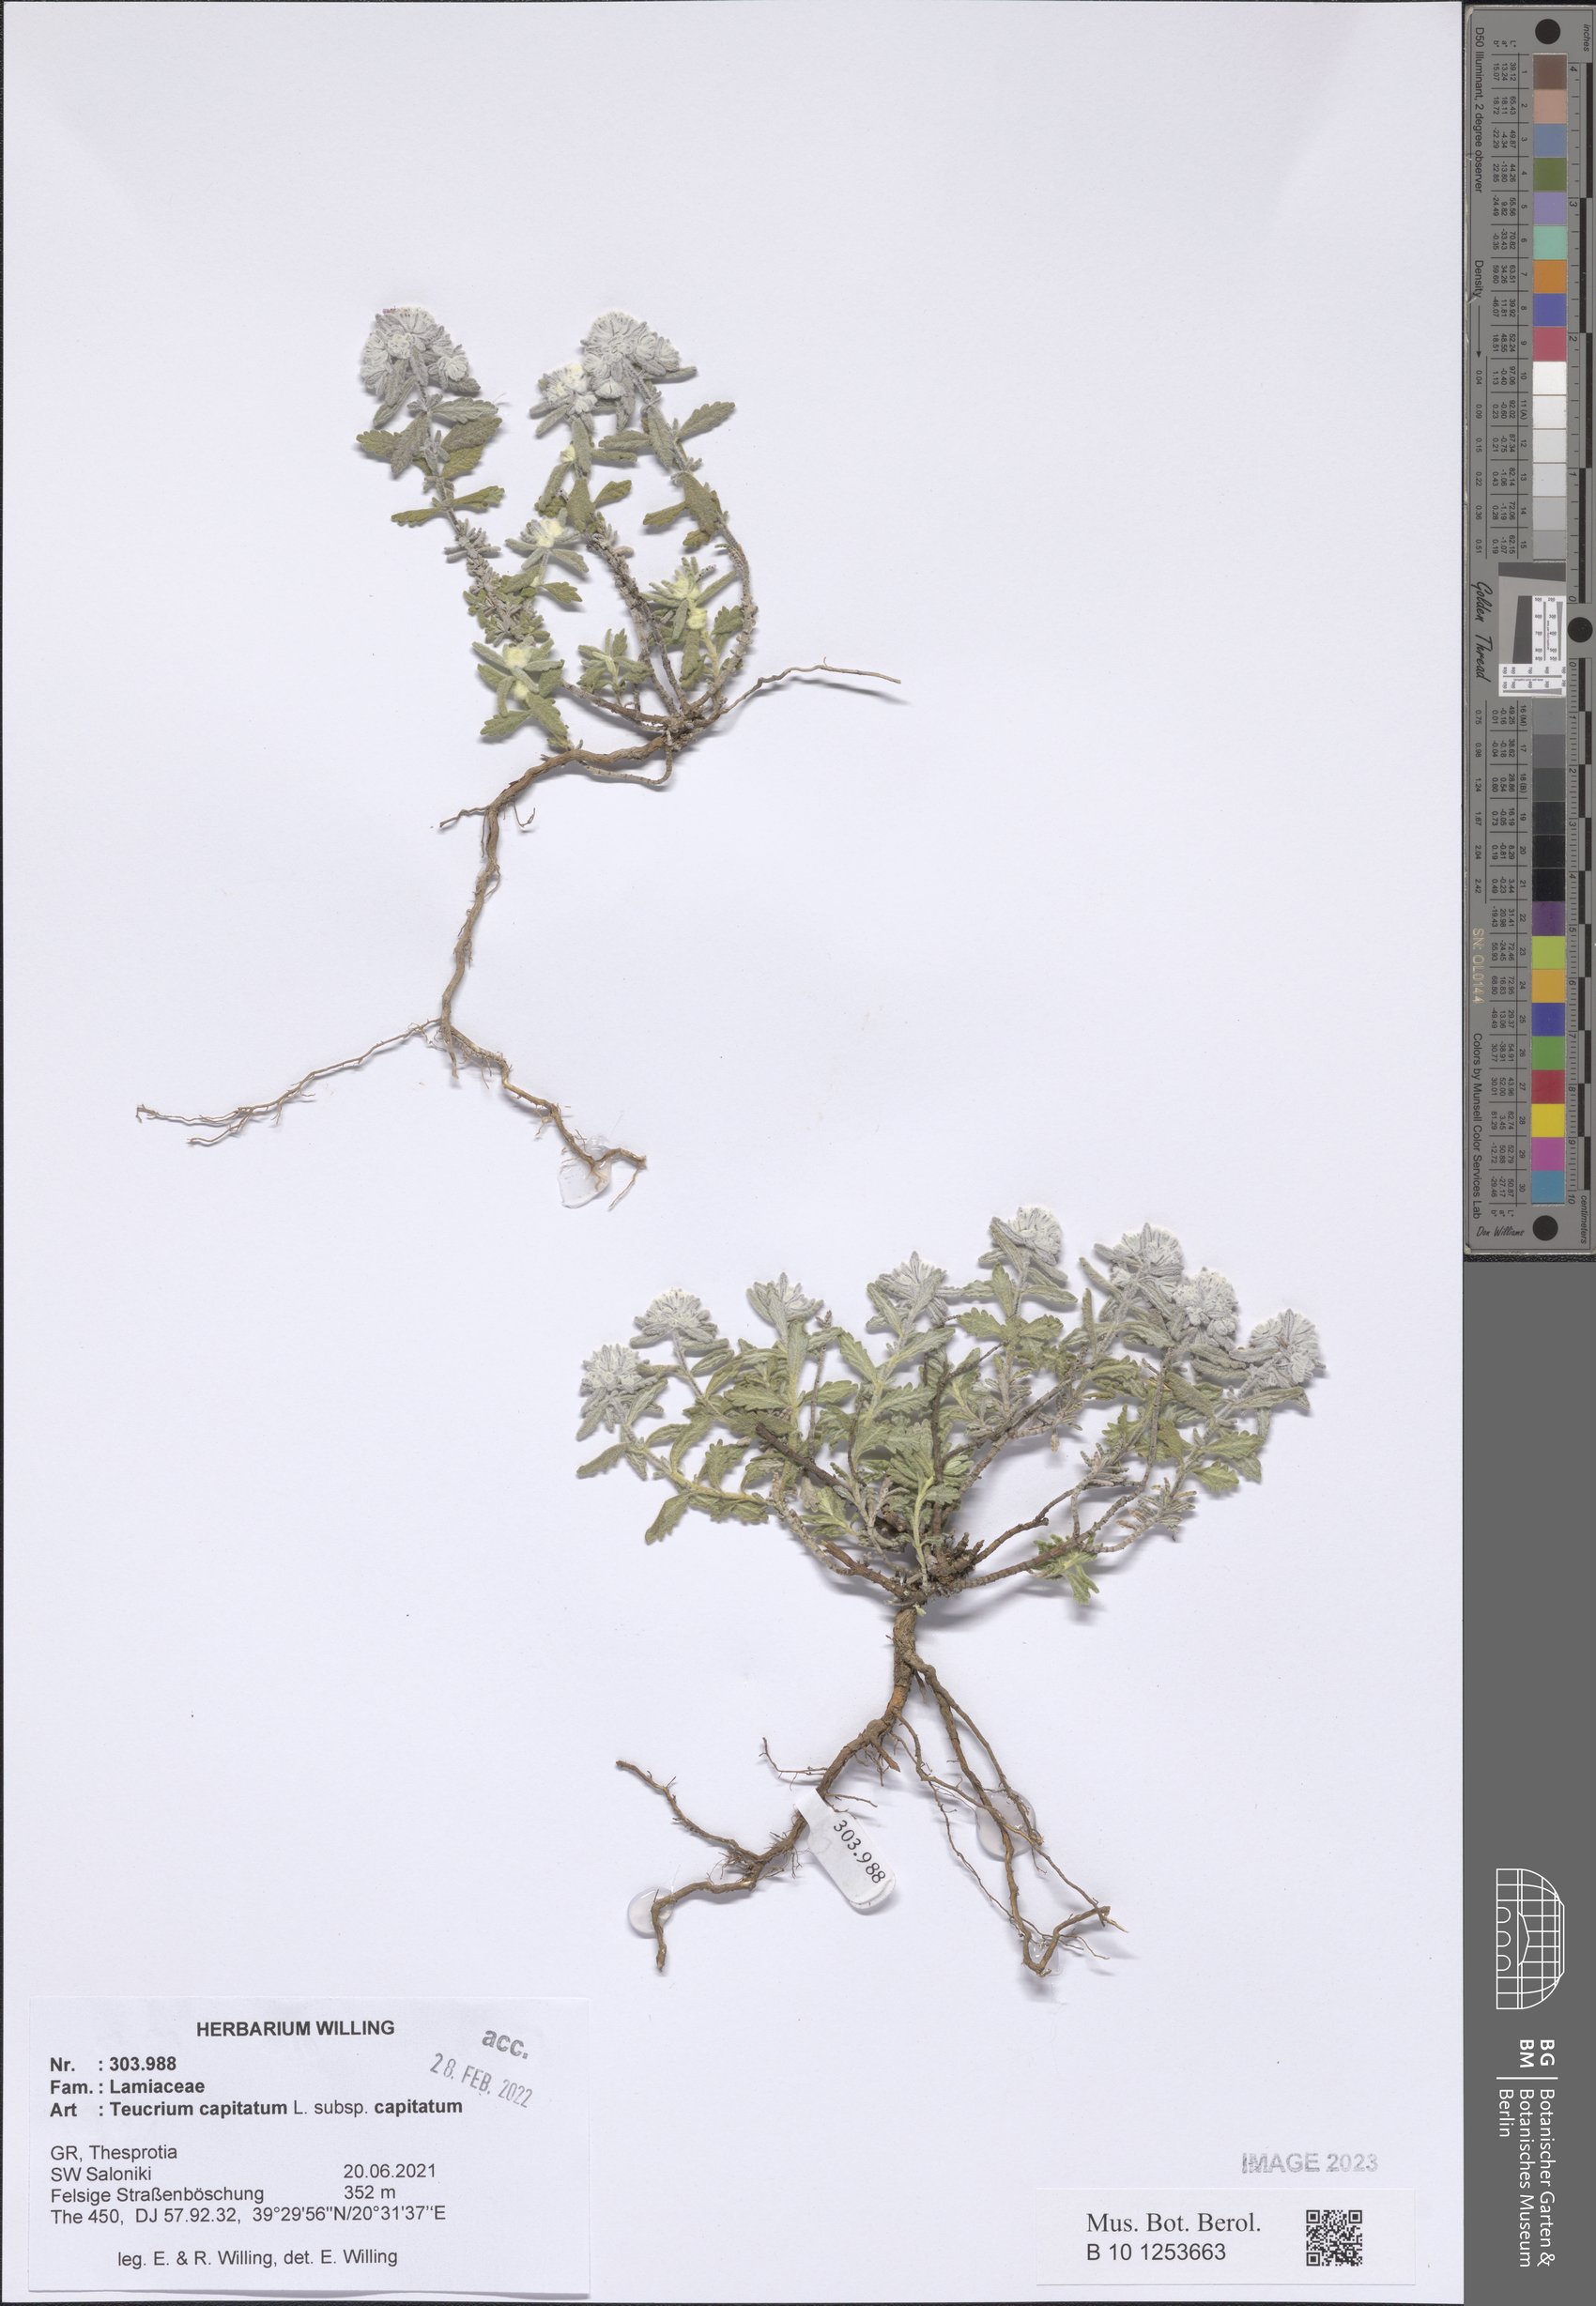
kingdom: Plantae
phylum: Tracheophyta
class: Magnoliopsida
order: Lamiales
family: Lamiaceae
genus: Teucrium
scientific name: Teucrium capitatum
